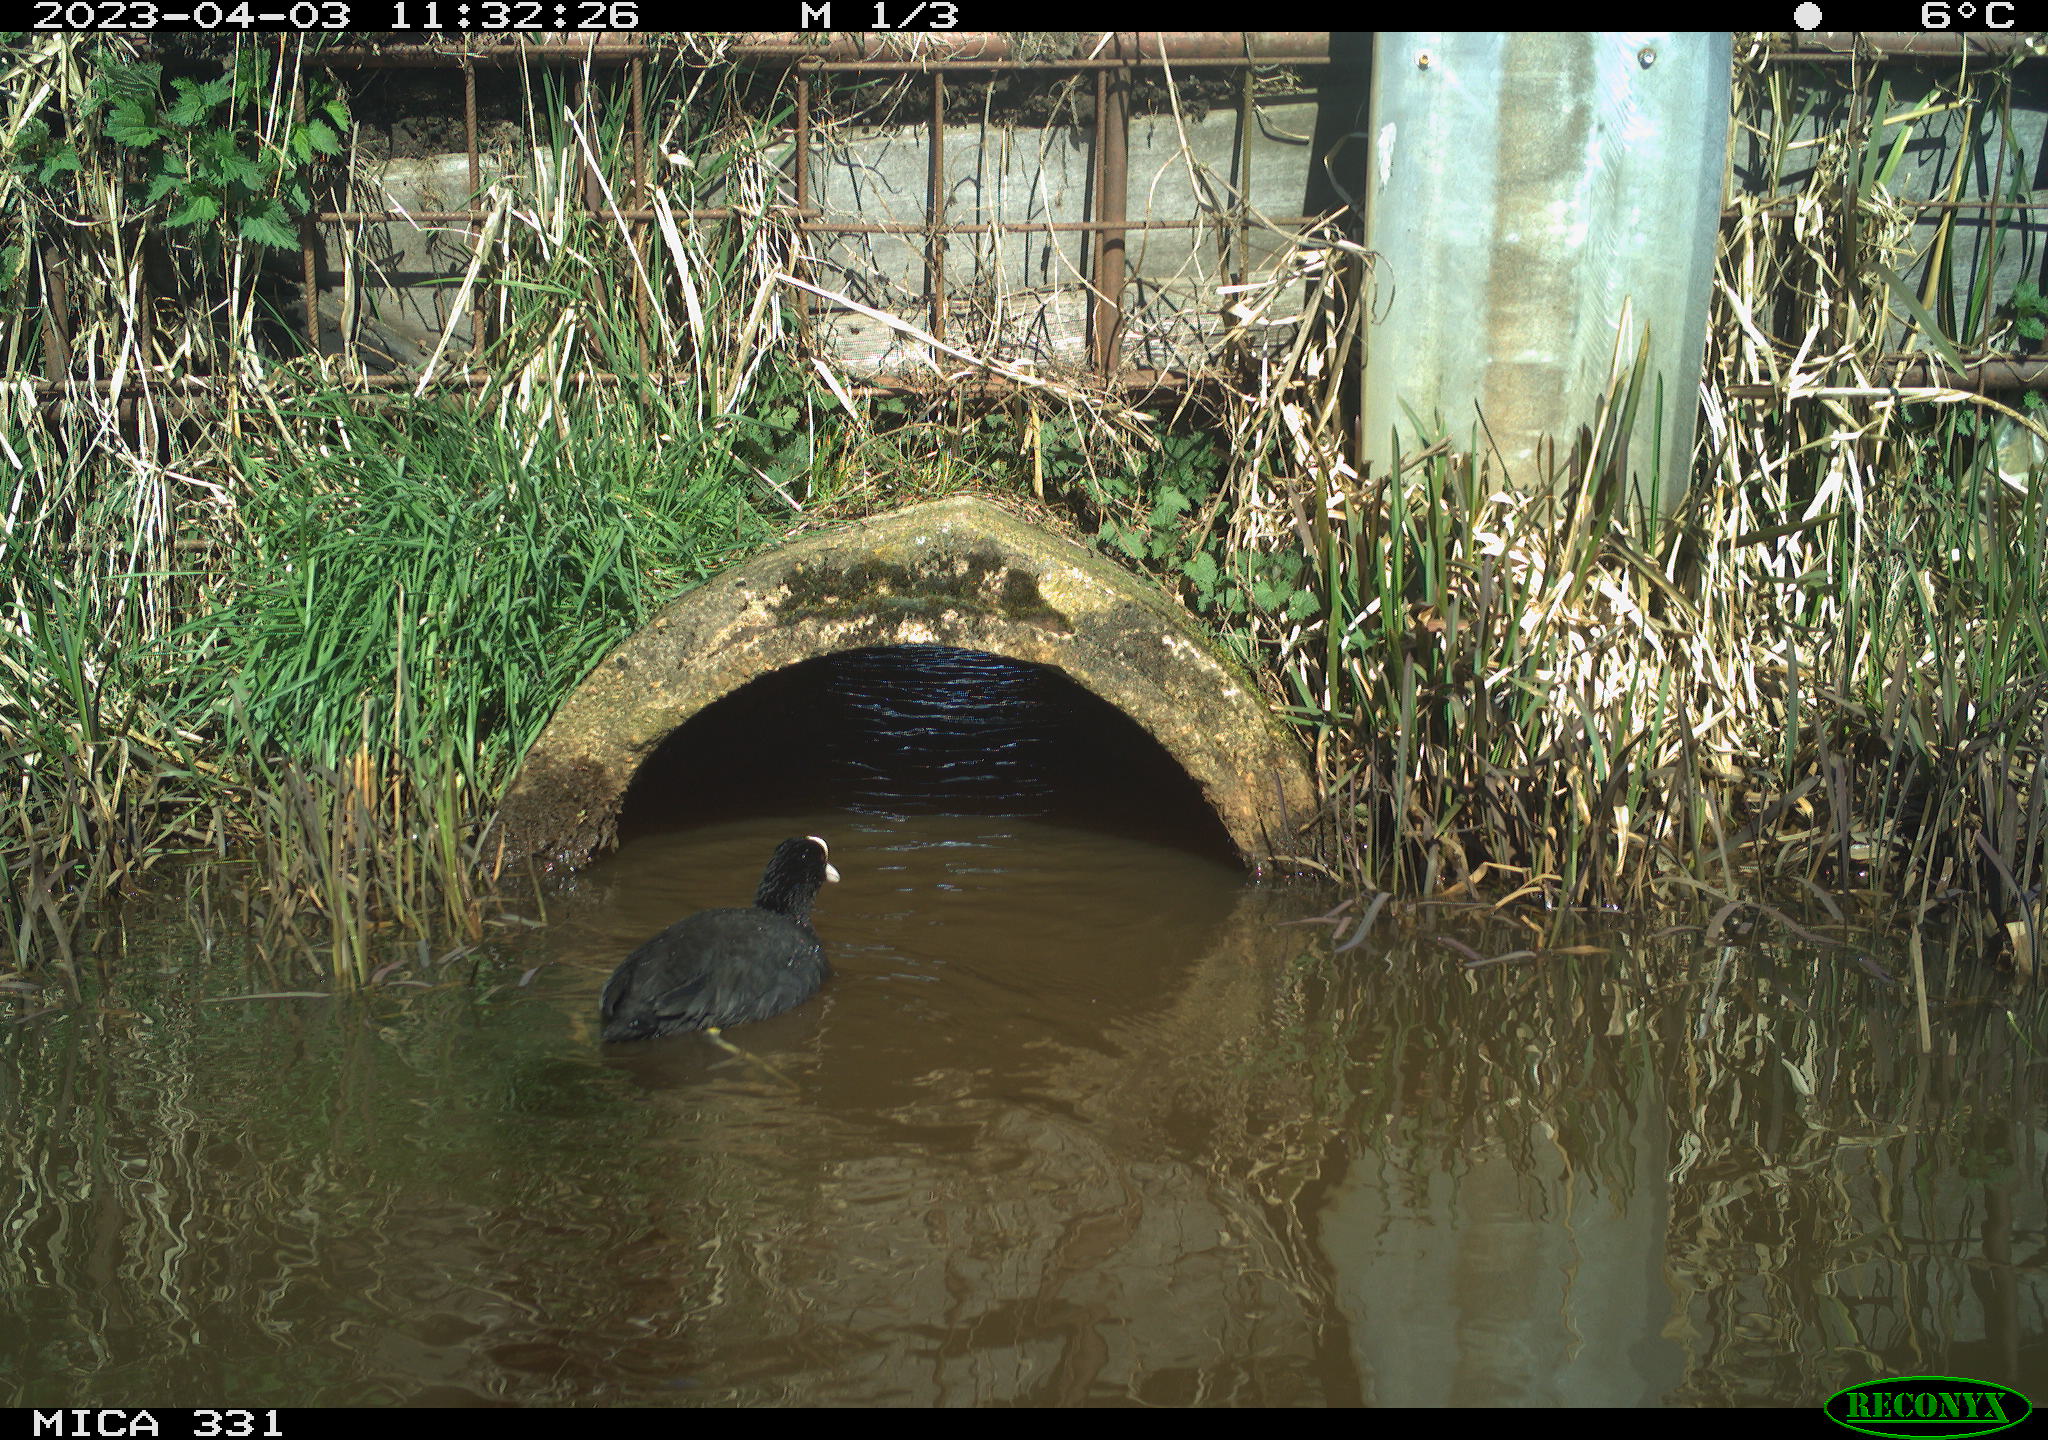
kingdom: Animalia
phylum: Chordata
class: Aves
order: Gruiformes
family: Rallidae
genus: Gallinula
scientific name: Gallinula chloropus
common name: Common moorhen
